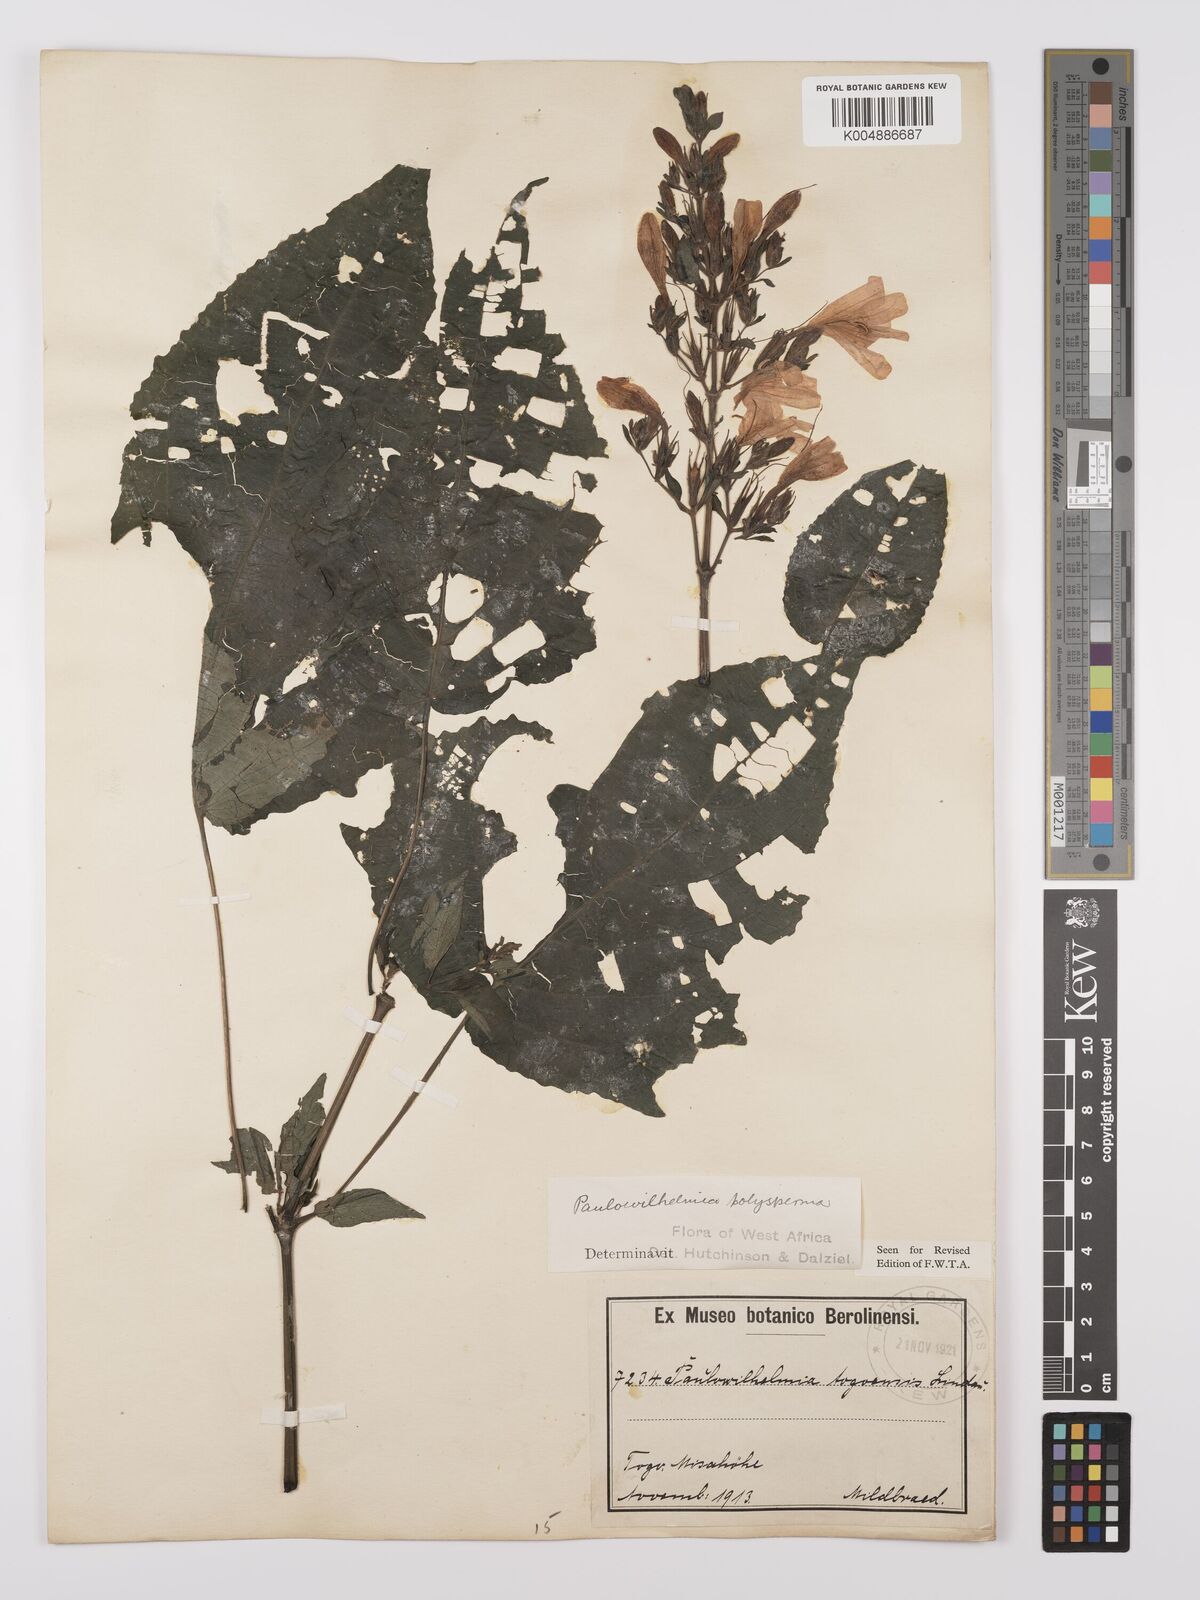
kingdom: Plantae
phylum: Tracheophyta
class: Magnoliopsida
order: Lamiales
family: Acanthaceae
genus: Eremomastax
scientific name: Eremomastax speciosa
